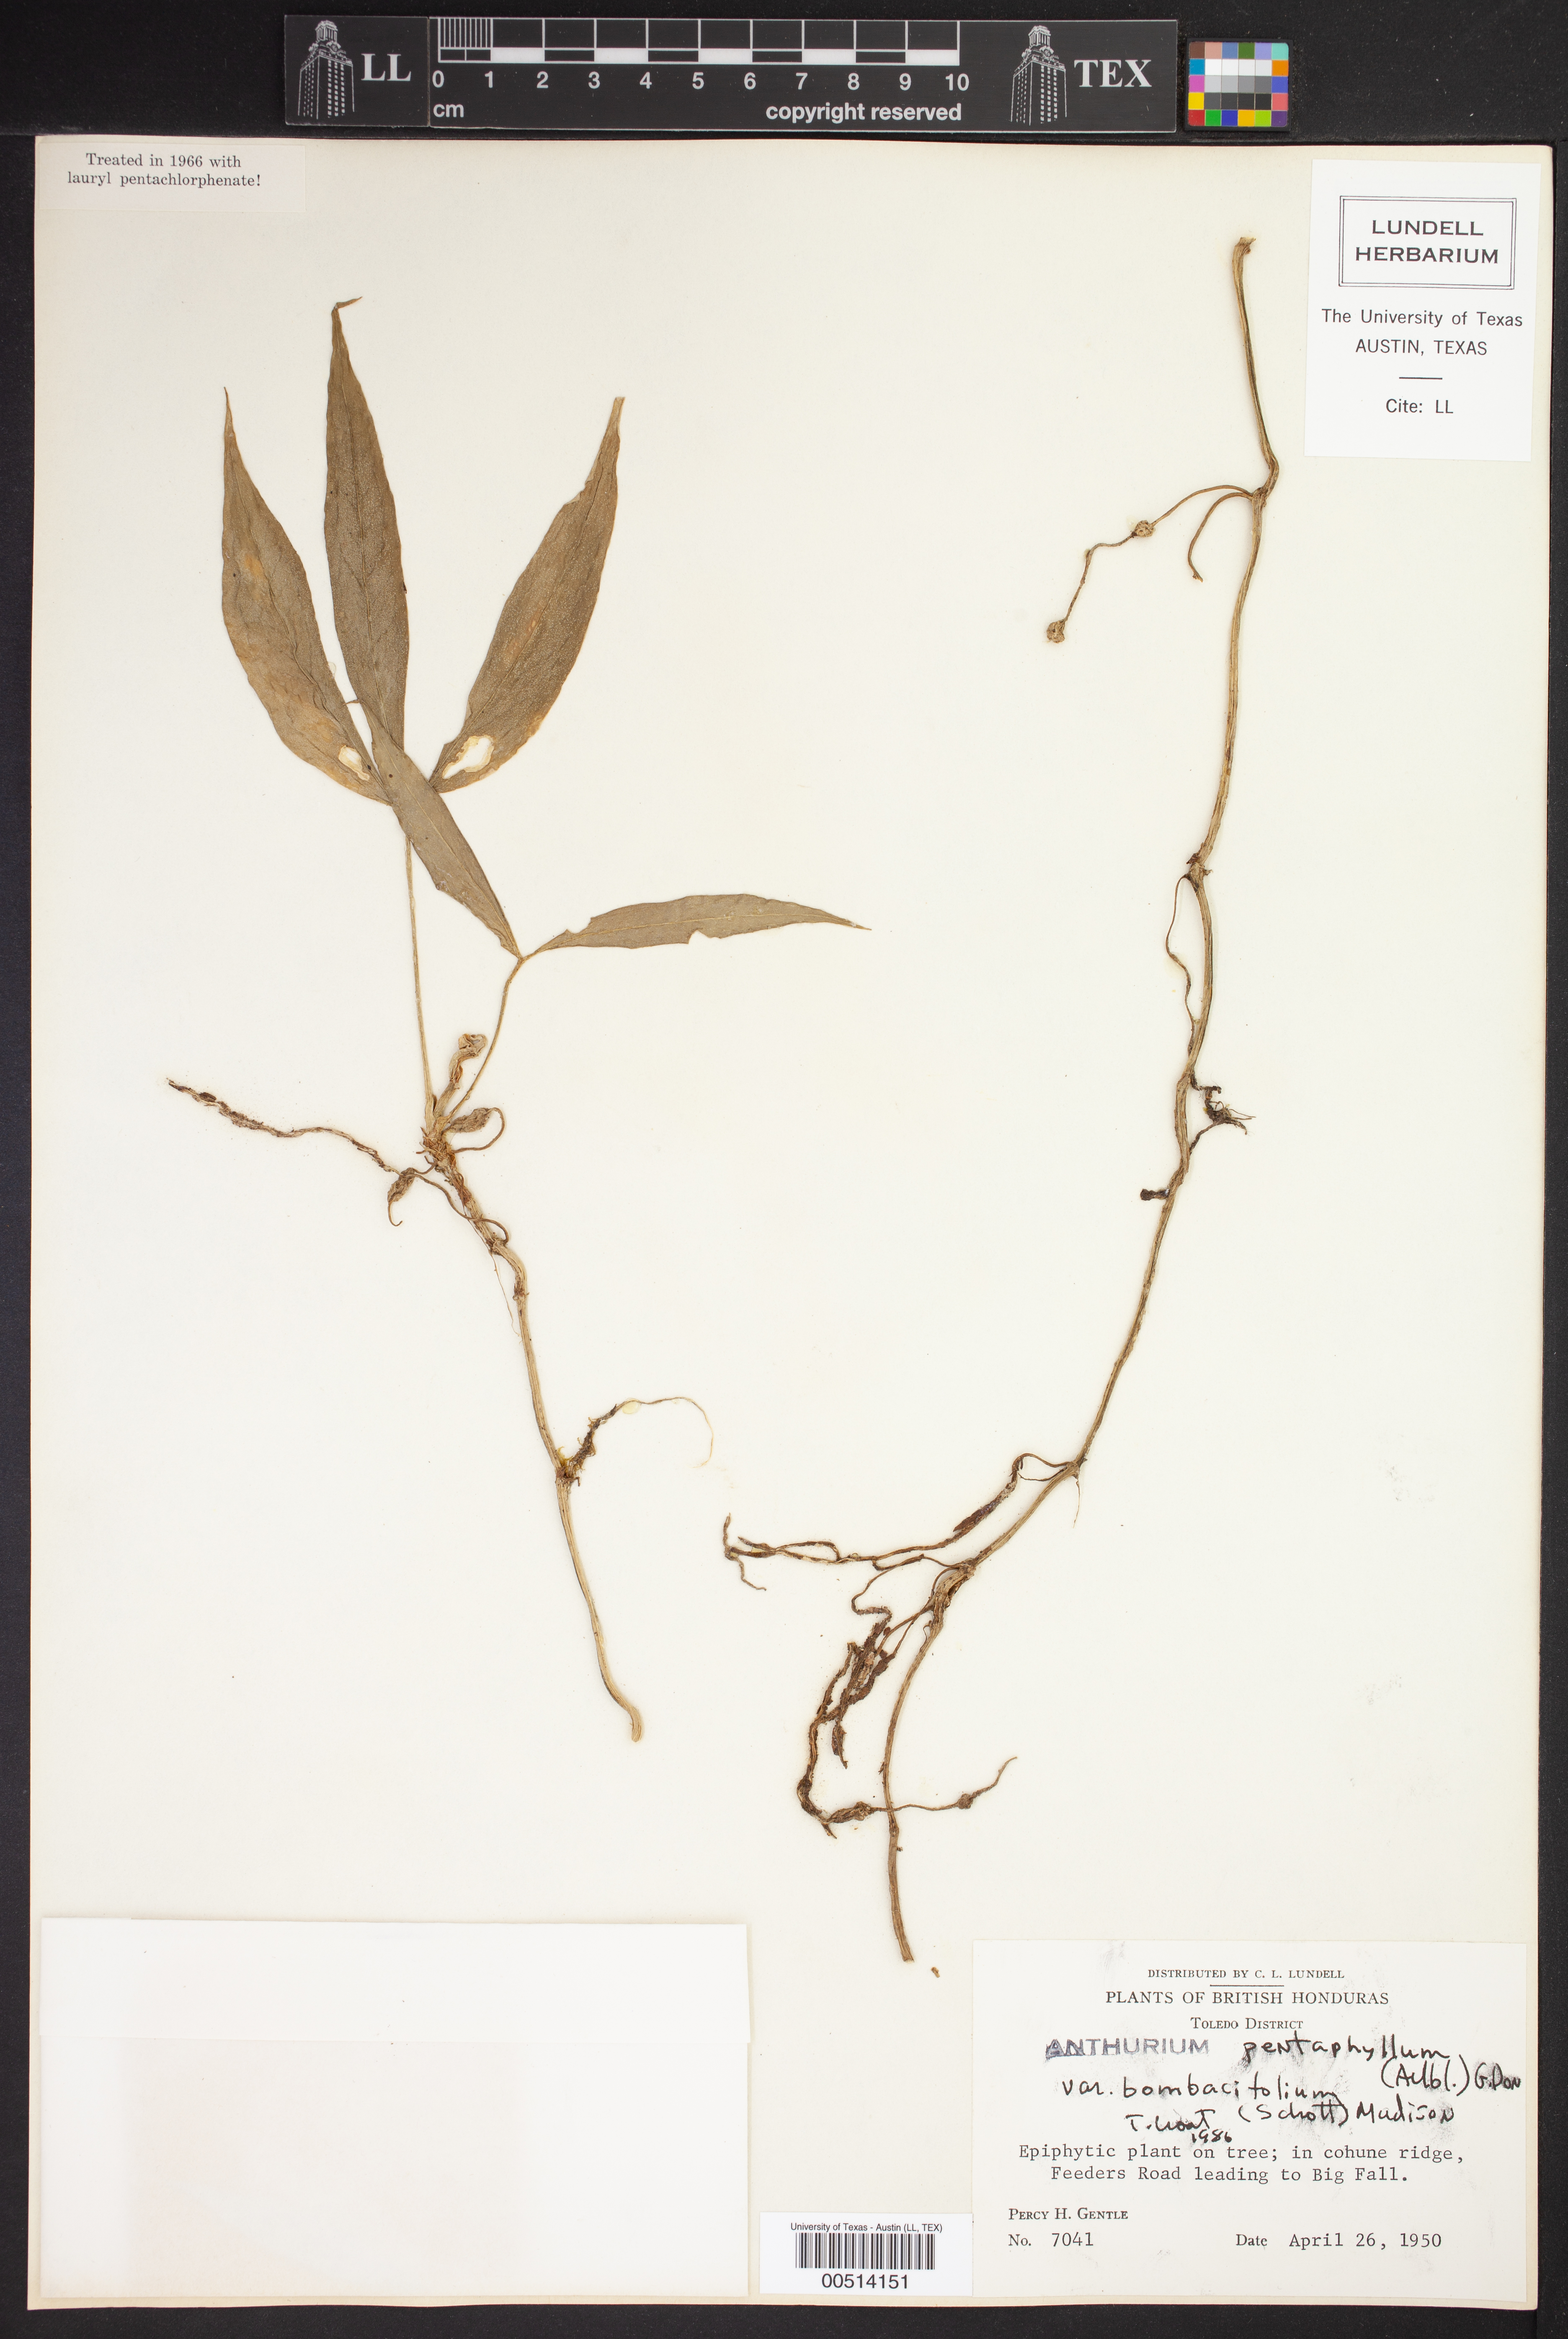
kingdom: Plantae
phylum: Tracheophyta
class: Liliopsida
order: Alismatales
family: Araceae
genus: Anthurium
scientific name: Anthurium pentaphyllum
